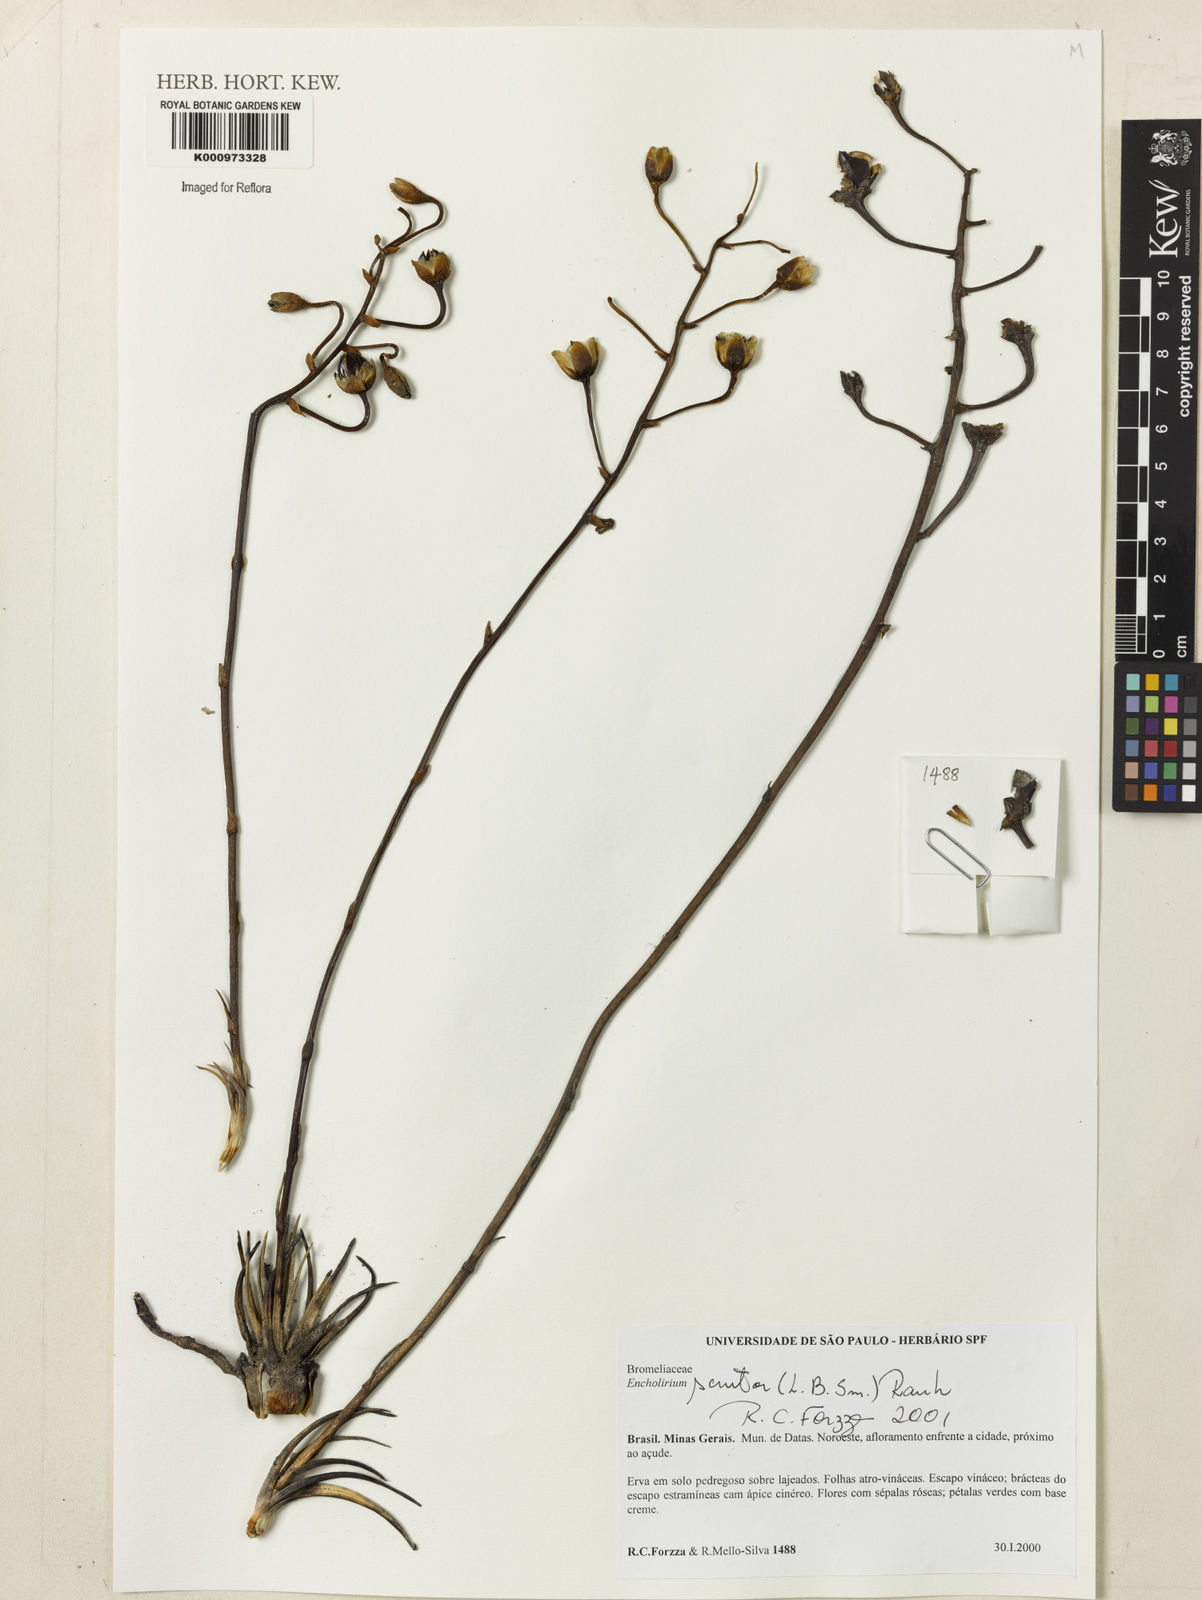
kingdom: Plantae
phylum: Tracheophyta
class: Liliopsida
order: Poales
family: Bromeliaceae
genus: Encholirium
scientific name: Encholirium scrutor
